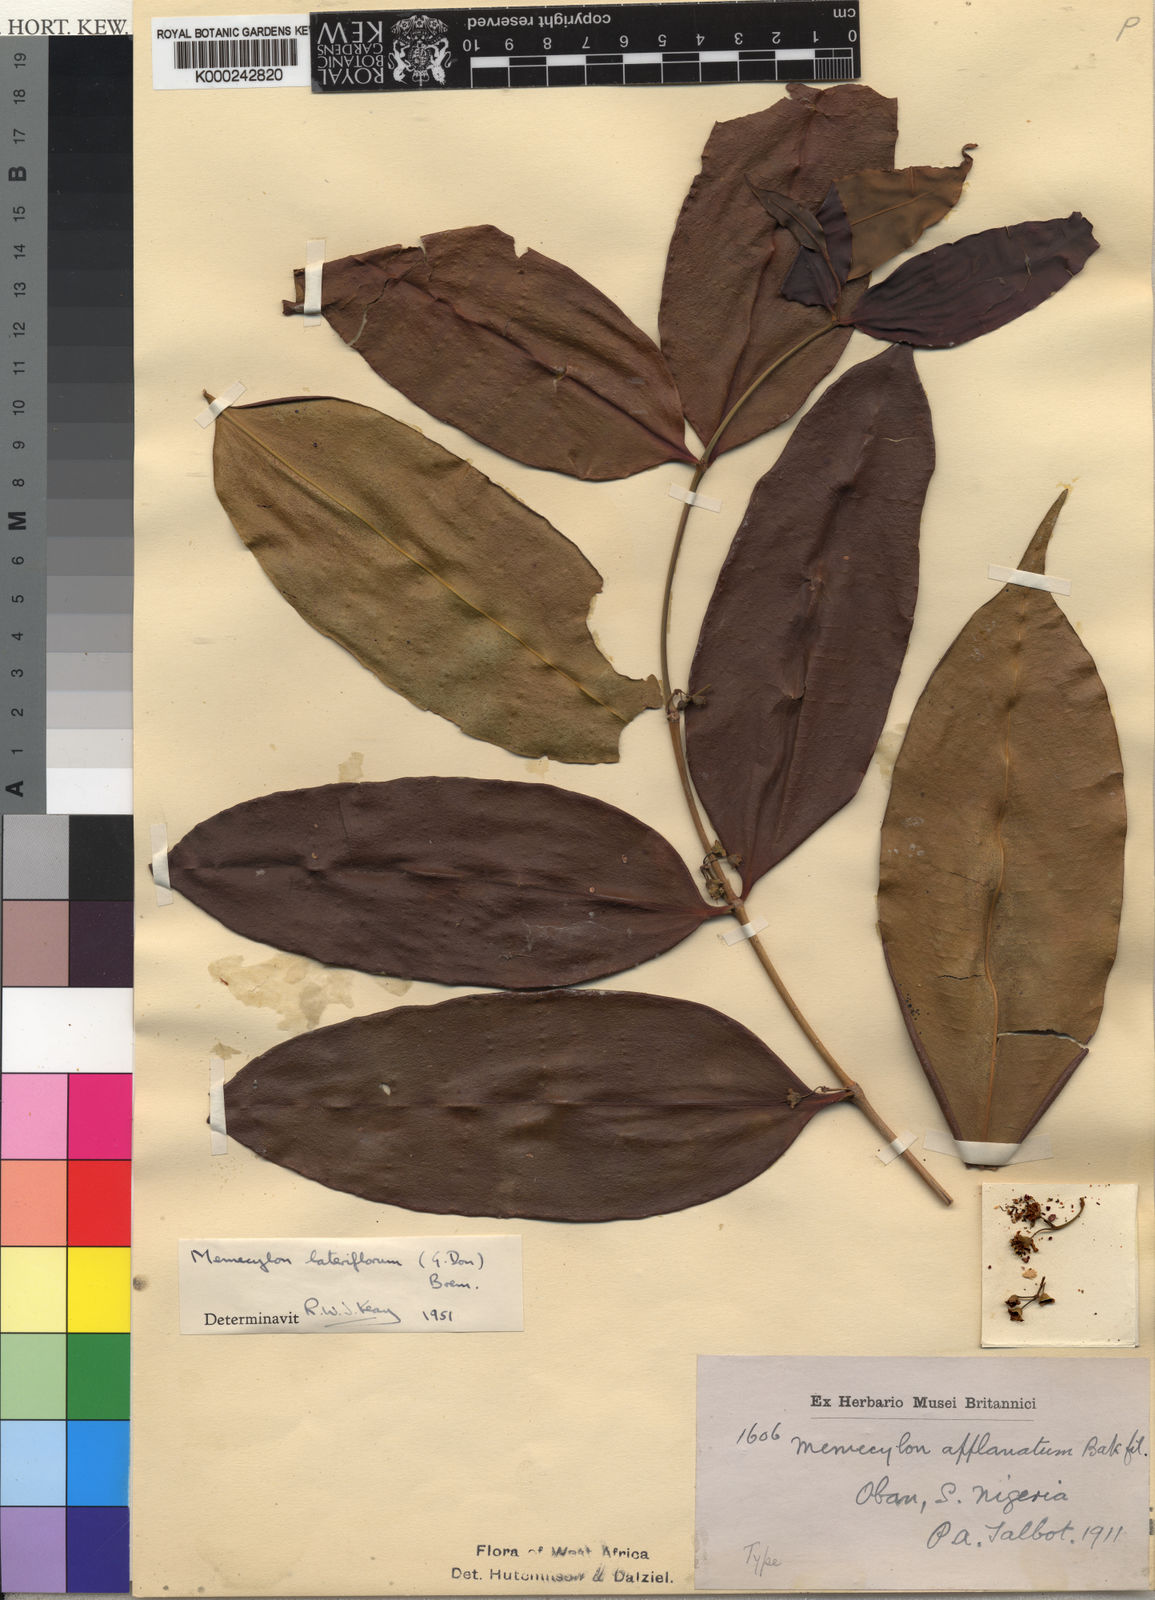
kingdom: Plantae
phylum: Tracheophyta
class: Magnoliopsida
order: Myrtales
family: Melastomataceae
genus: Memecylon
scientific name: Memecylon lateriflorum
